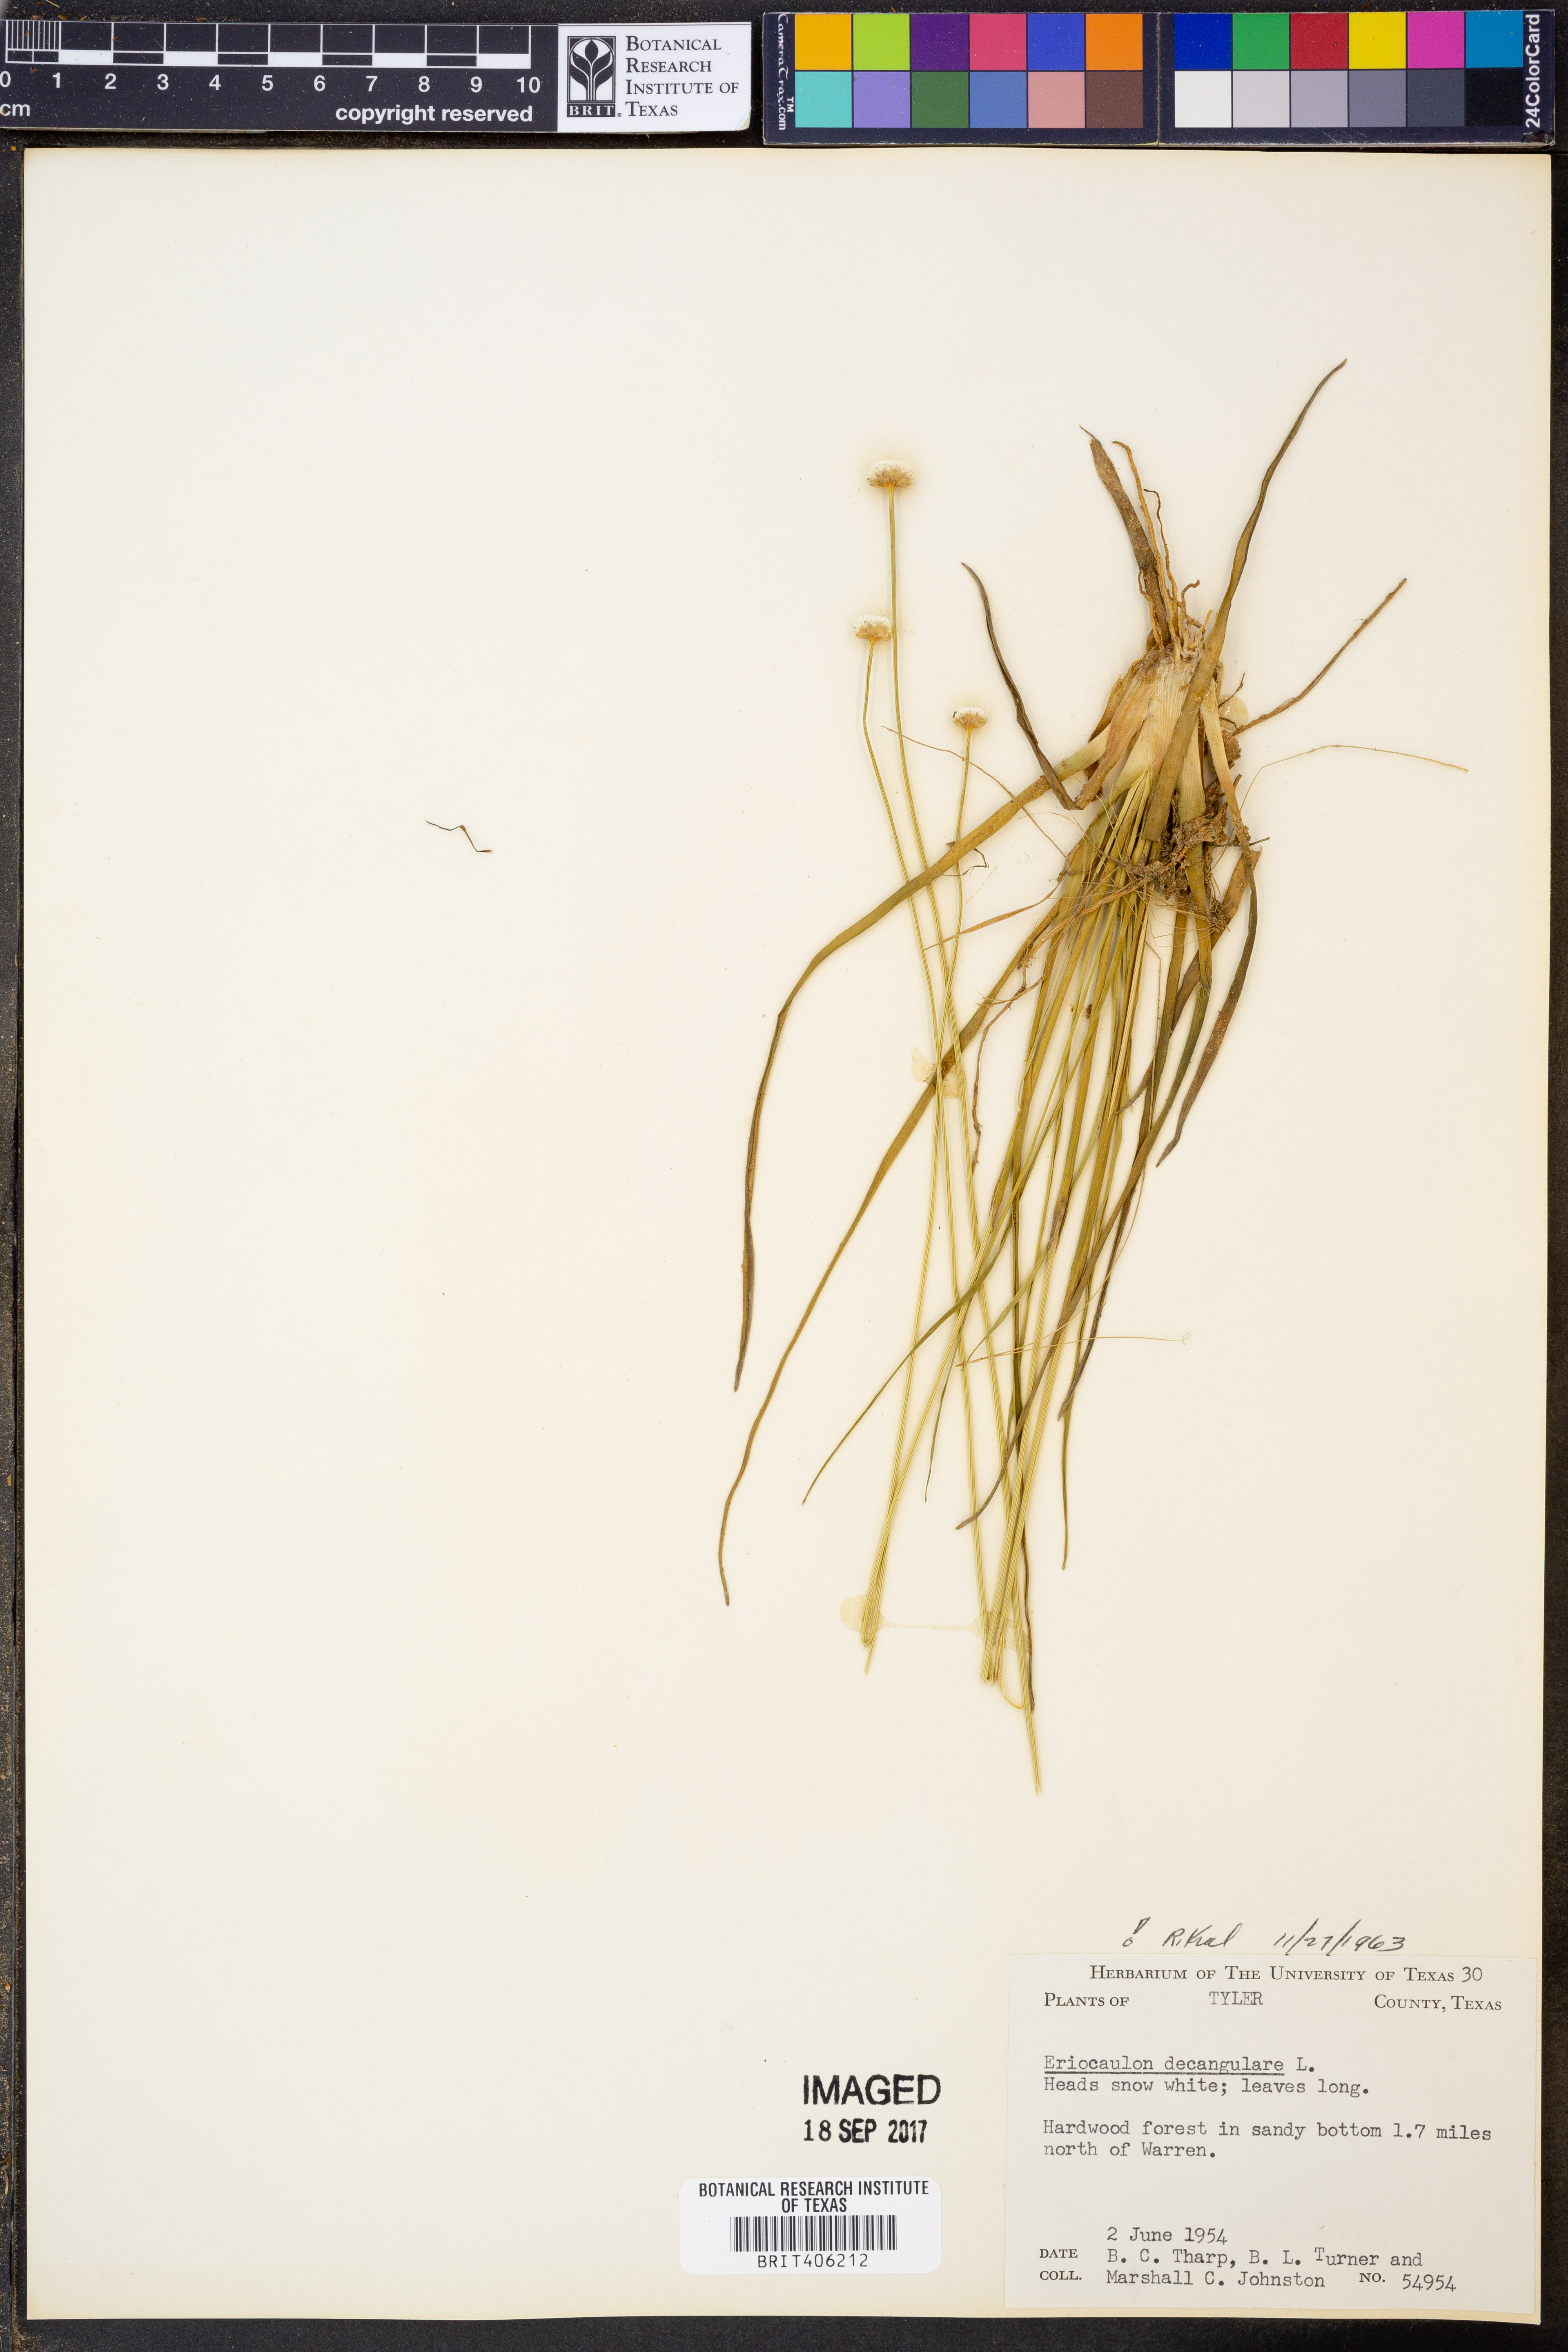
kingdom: Plantae
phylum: Tracheophyta
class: Liliopsida
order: Poales
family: Eriocaulaceae
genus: Eriocaulon
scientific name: Eriocaulon decangulare
